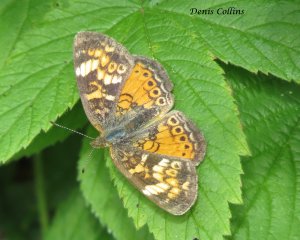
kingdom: Animalia
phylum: Arthropoda
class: Insecta
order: Lepidoptera
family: Nymphalidae
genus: Phyciodes
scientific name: Phyciodes tharos
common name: Northern Crescent
